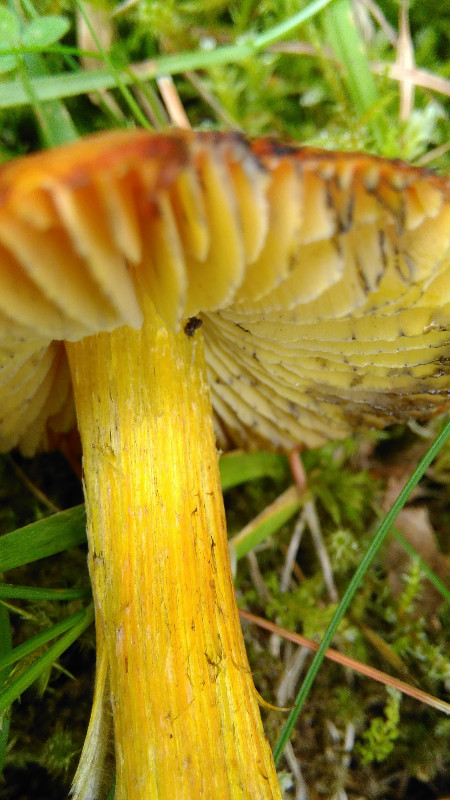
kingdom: Fungi
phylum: Basidiomycota
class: Agaricomycetes
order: Agaricales
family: Hygrophoraceae
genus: Hygrocybe
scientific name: Hygrocybe conica
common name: kegle-vokshat
